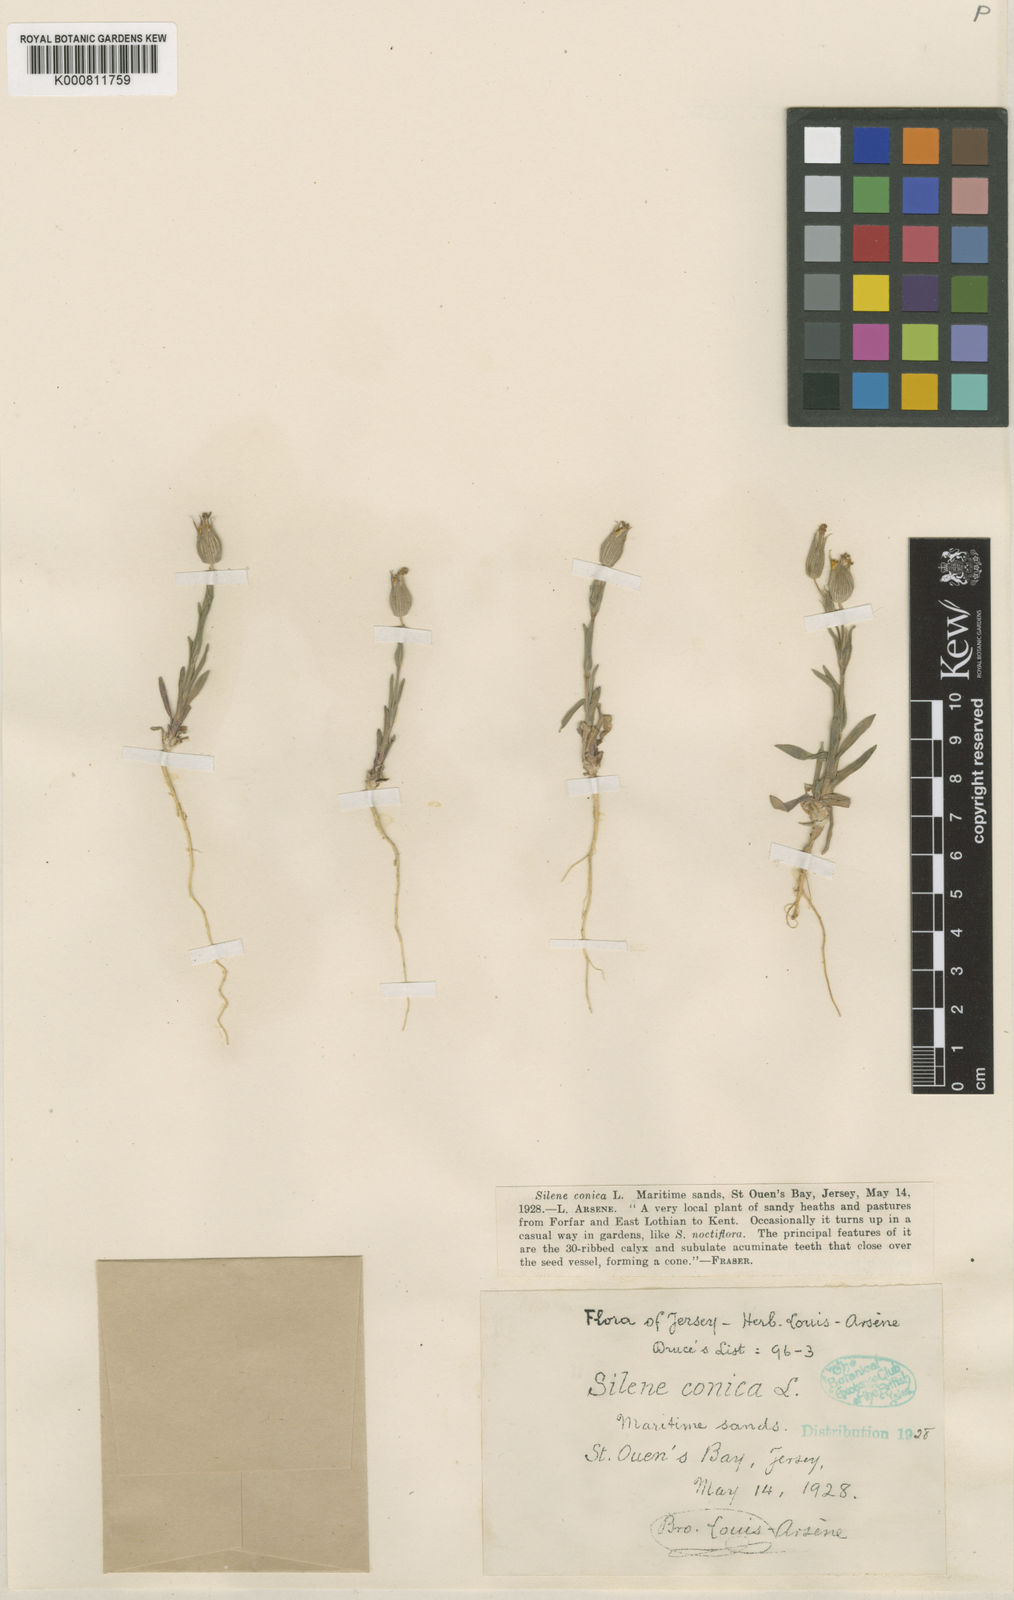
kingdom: Plantae
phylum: Tracheophyta
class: Magnoliopsida
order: Caryophyllales
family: Caryophyllaceae
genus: Silene
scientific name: Silene conica
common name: Sand catchfly
